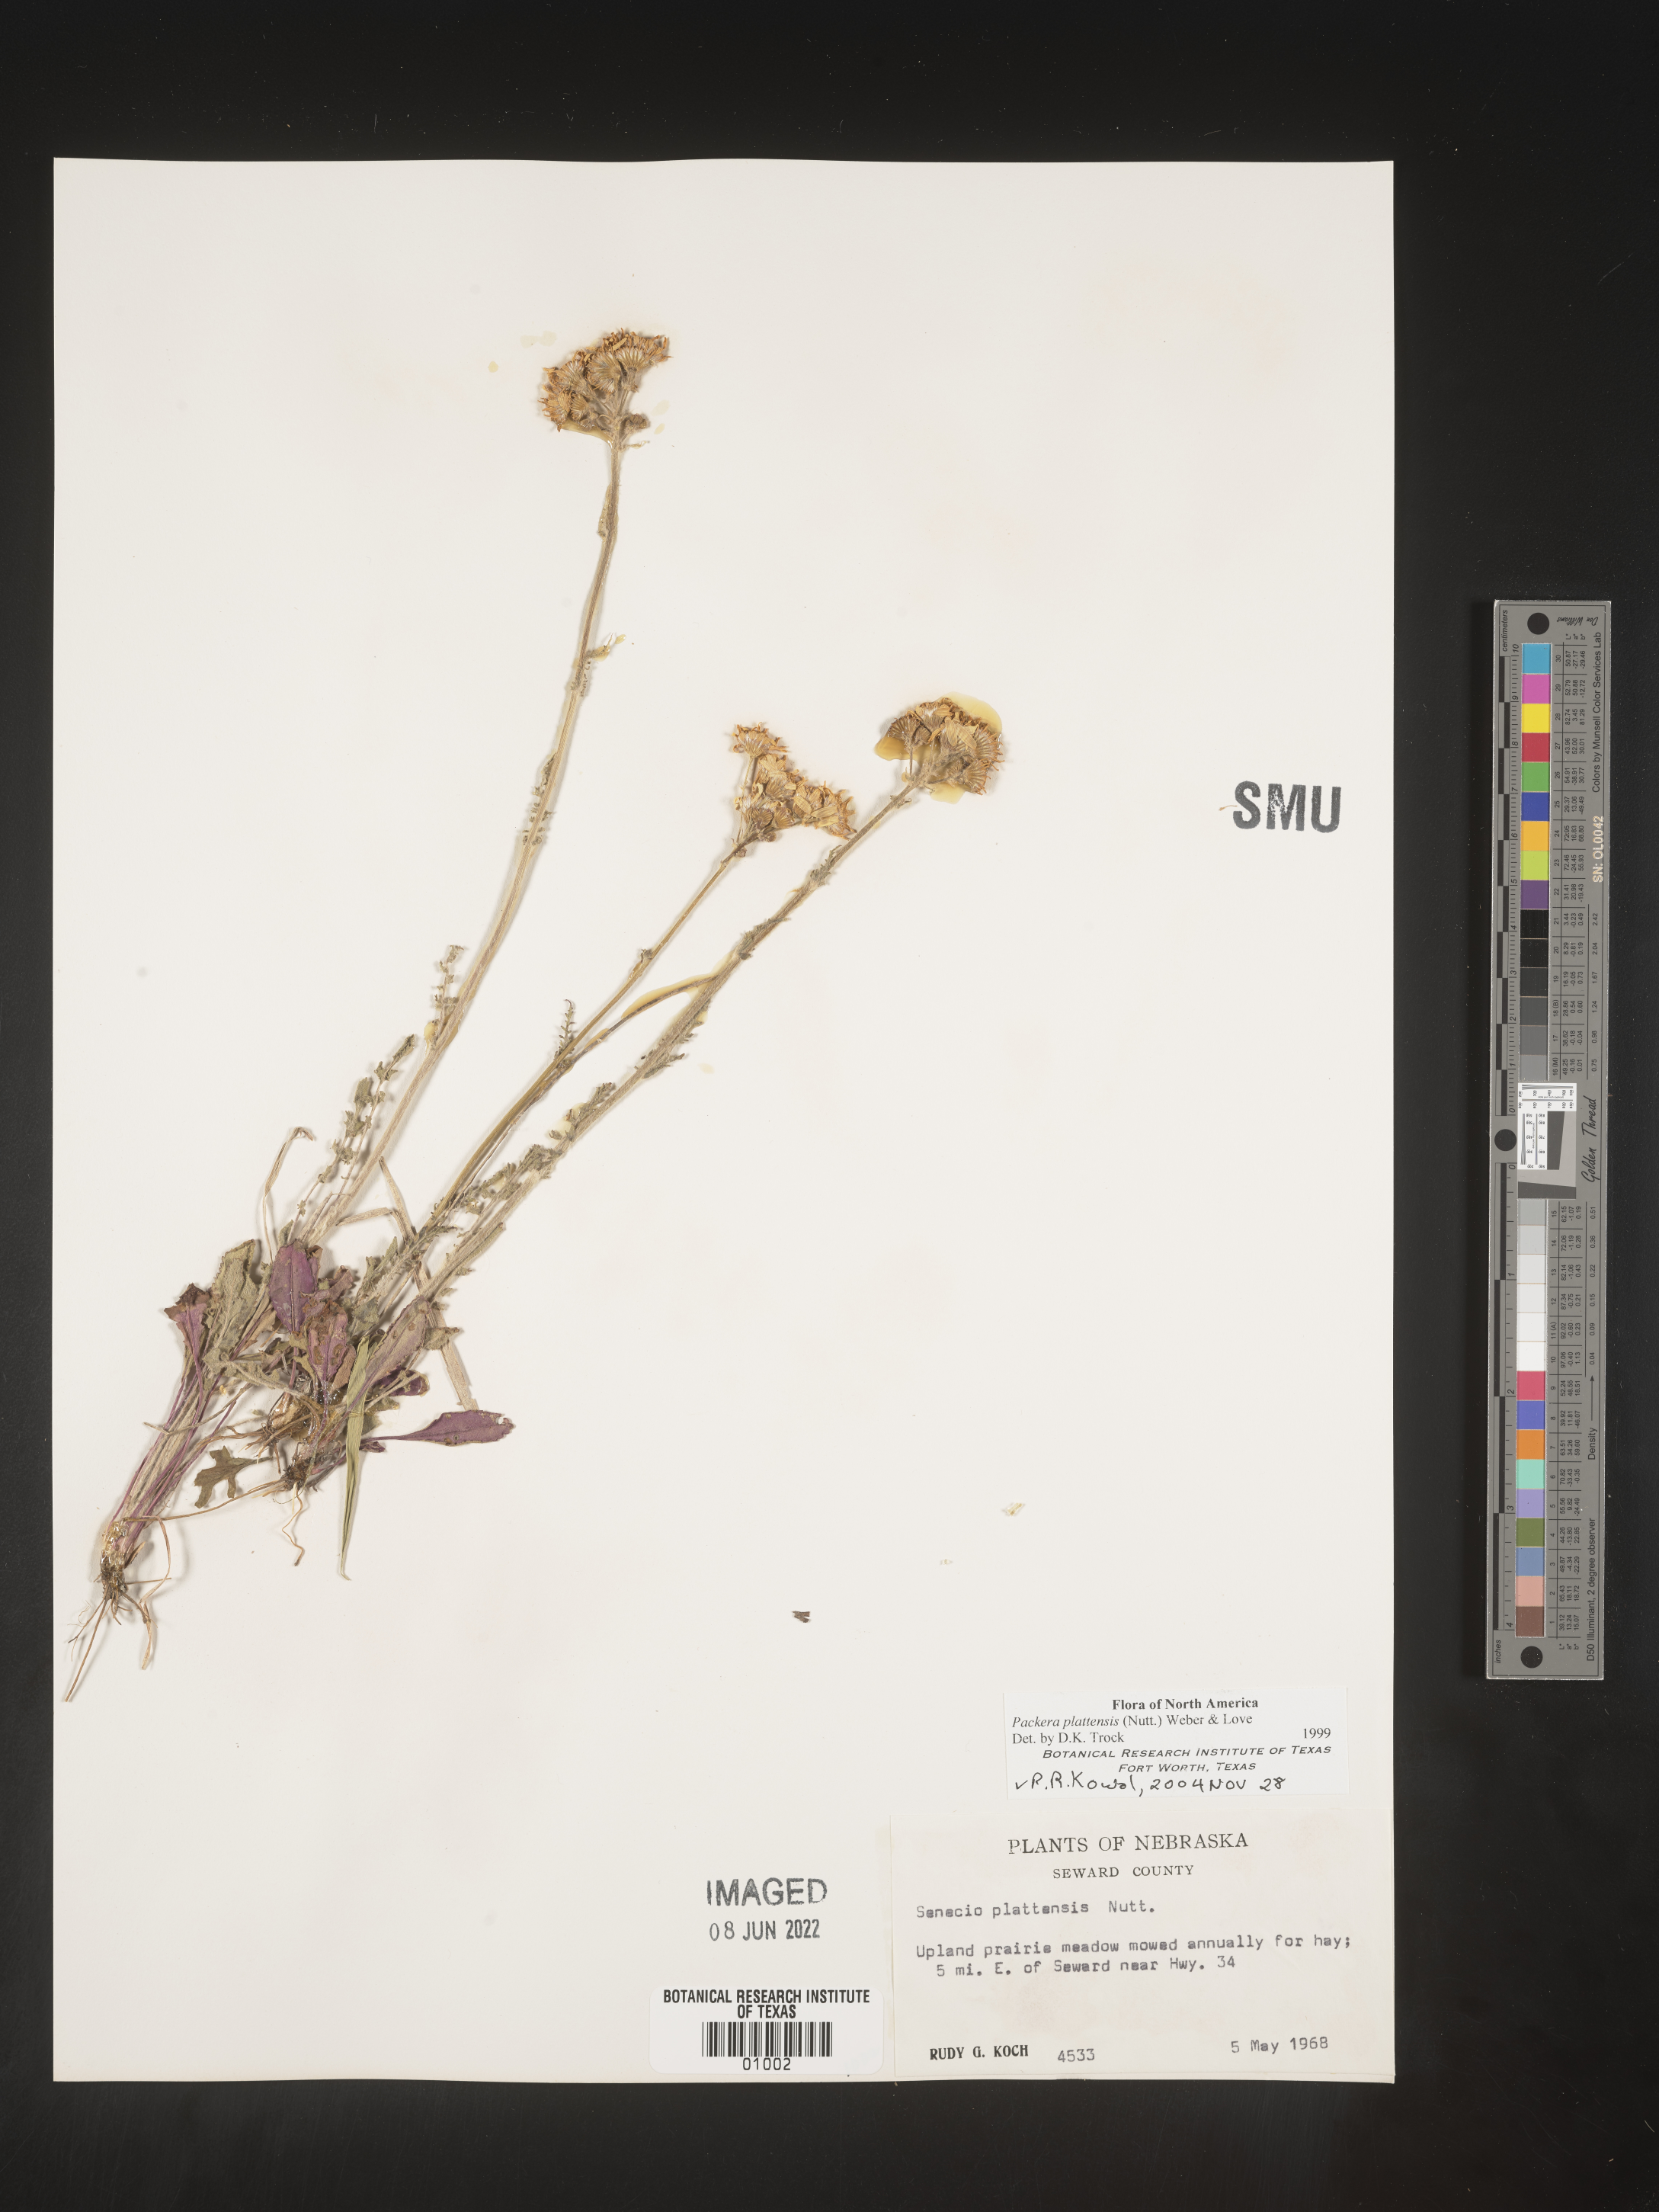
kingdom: Plantae
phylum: Tracheophyta
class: Magnoliopsida
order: Asterales
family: Asteraceae
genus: Packera
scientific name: Packera plattensis
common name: Prairie groundsel
